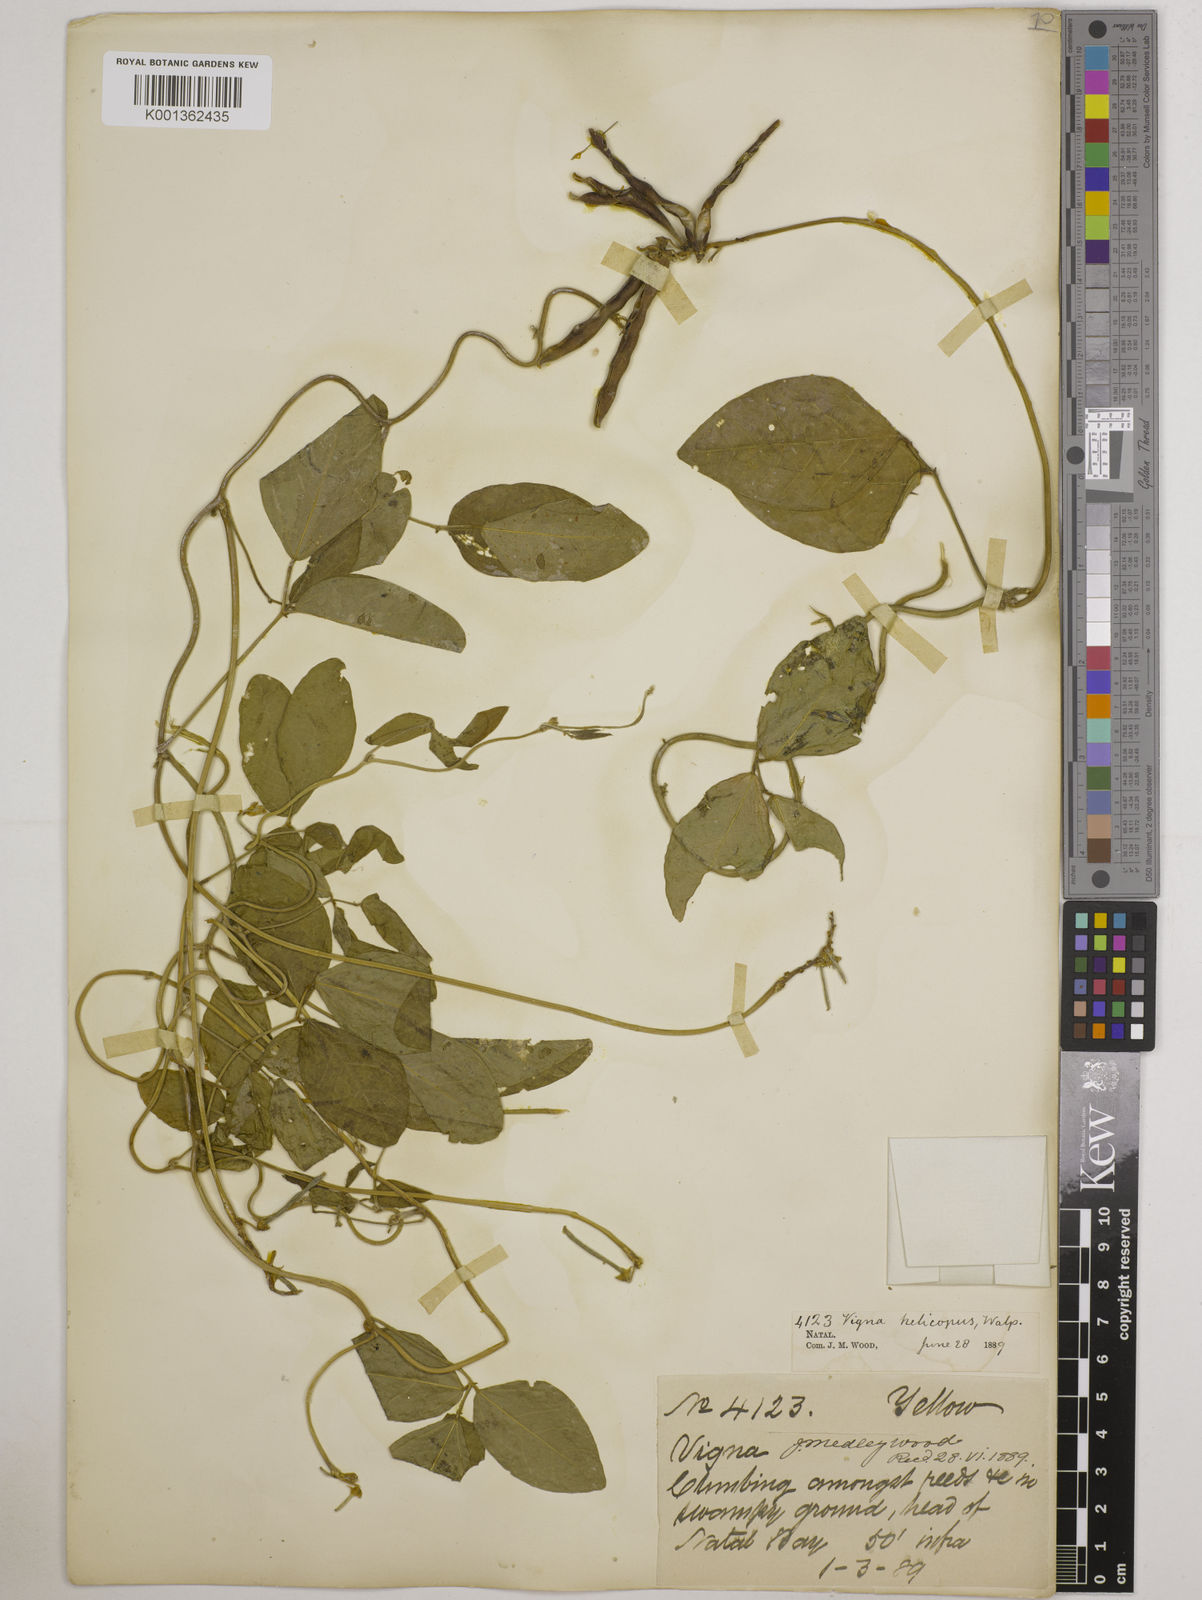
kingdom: Plantae
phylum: Tracheophyta
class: Magnoliopsida
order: Fabales
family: Fabaceae
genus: Vigna
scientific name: Vigna luteola
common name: Hairypod cowpea
